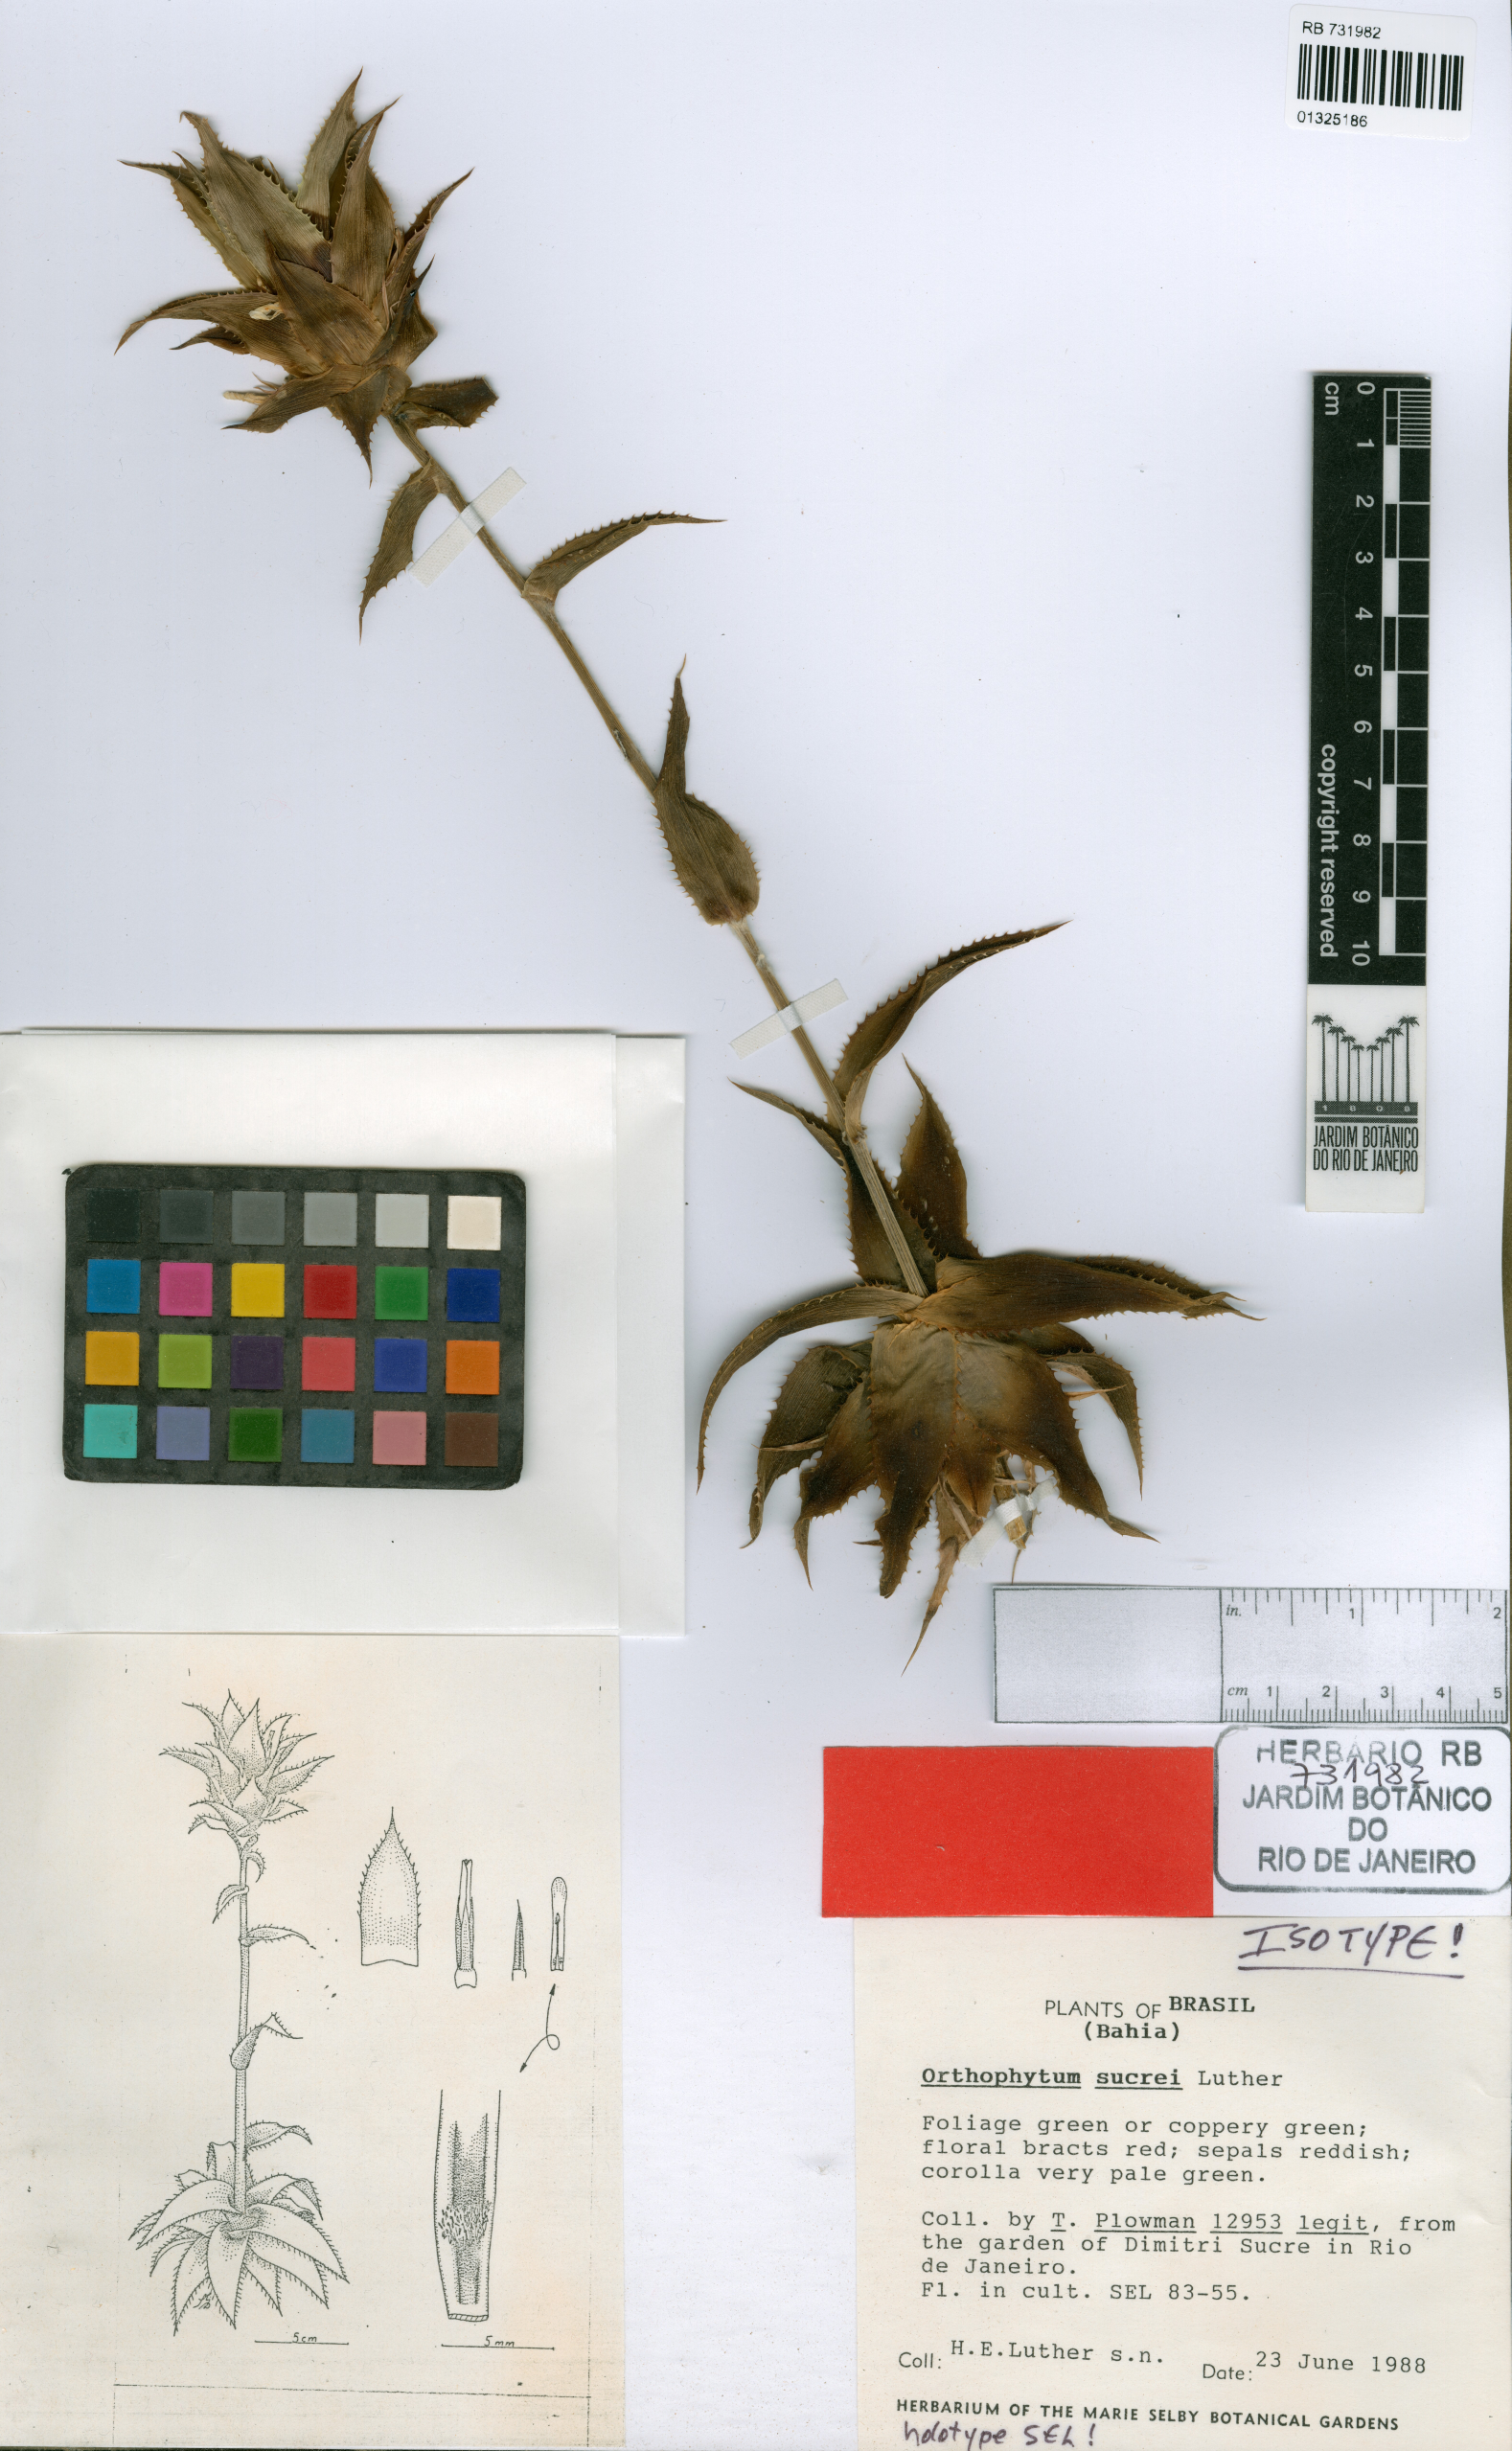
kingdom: Plantae
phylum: Tracheophyta
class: Liliopsida
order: Poales
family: Bromeliaceae
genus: Orthophytum
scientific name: Orthophytum sucrei
